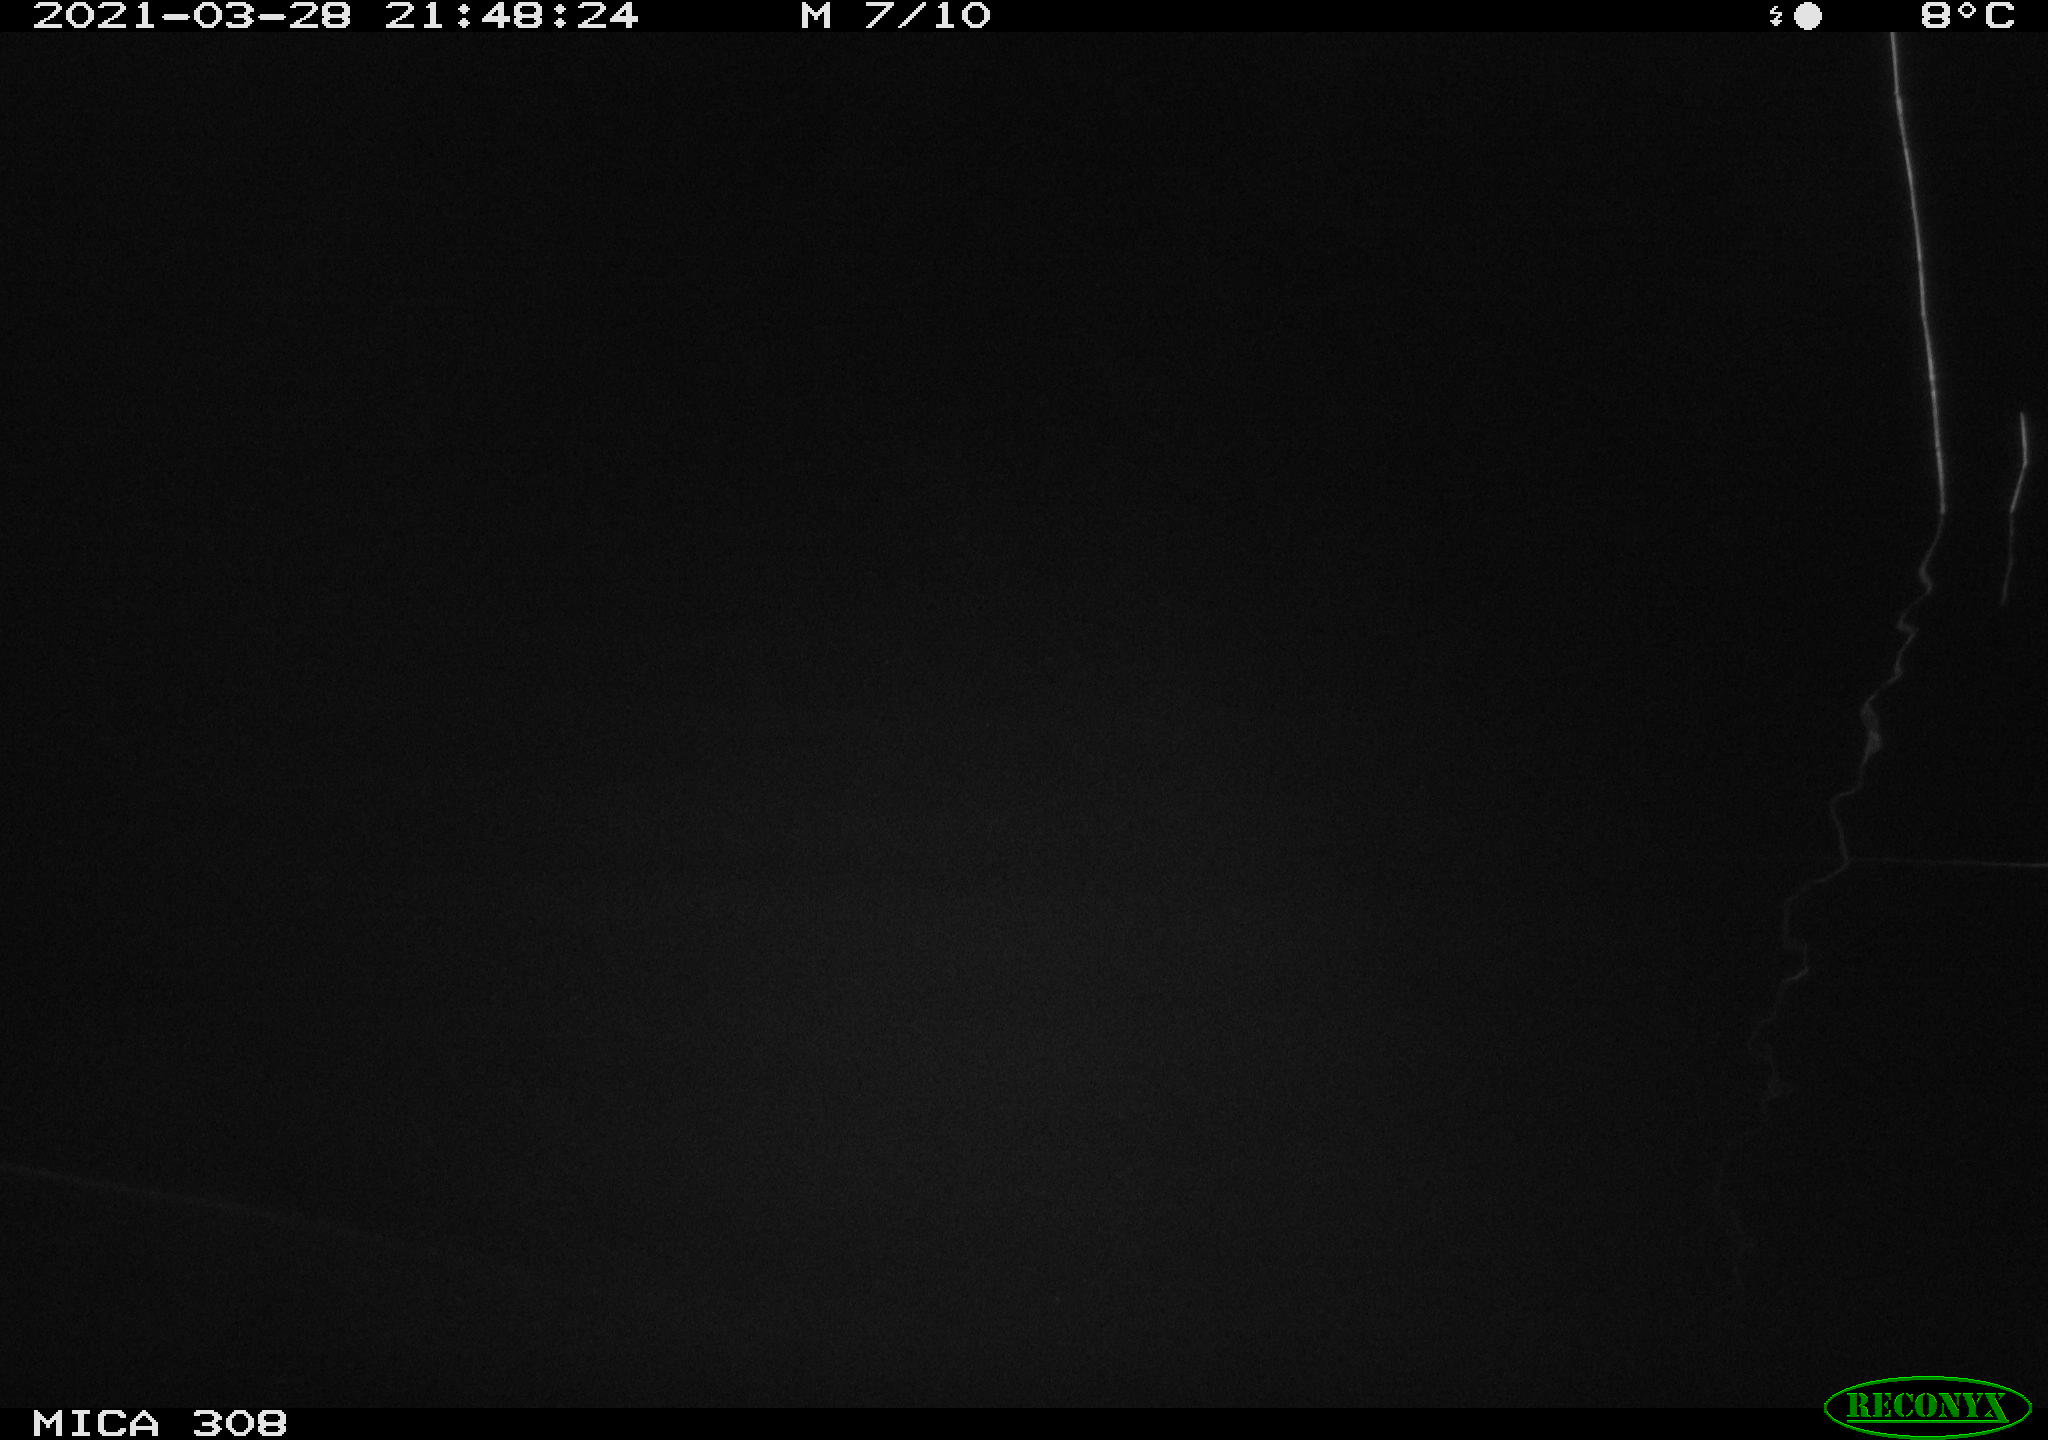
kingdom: Animalia
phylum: Chordata
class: Aves
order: Anseriformes
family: Anatidae
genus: Anas
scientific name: Anas platyrhynchos
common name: Mallard
